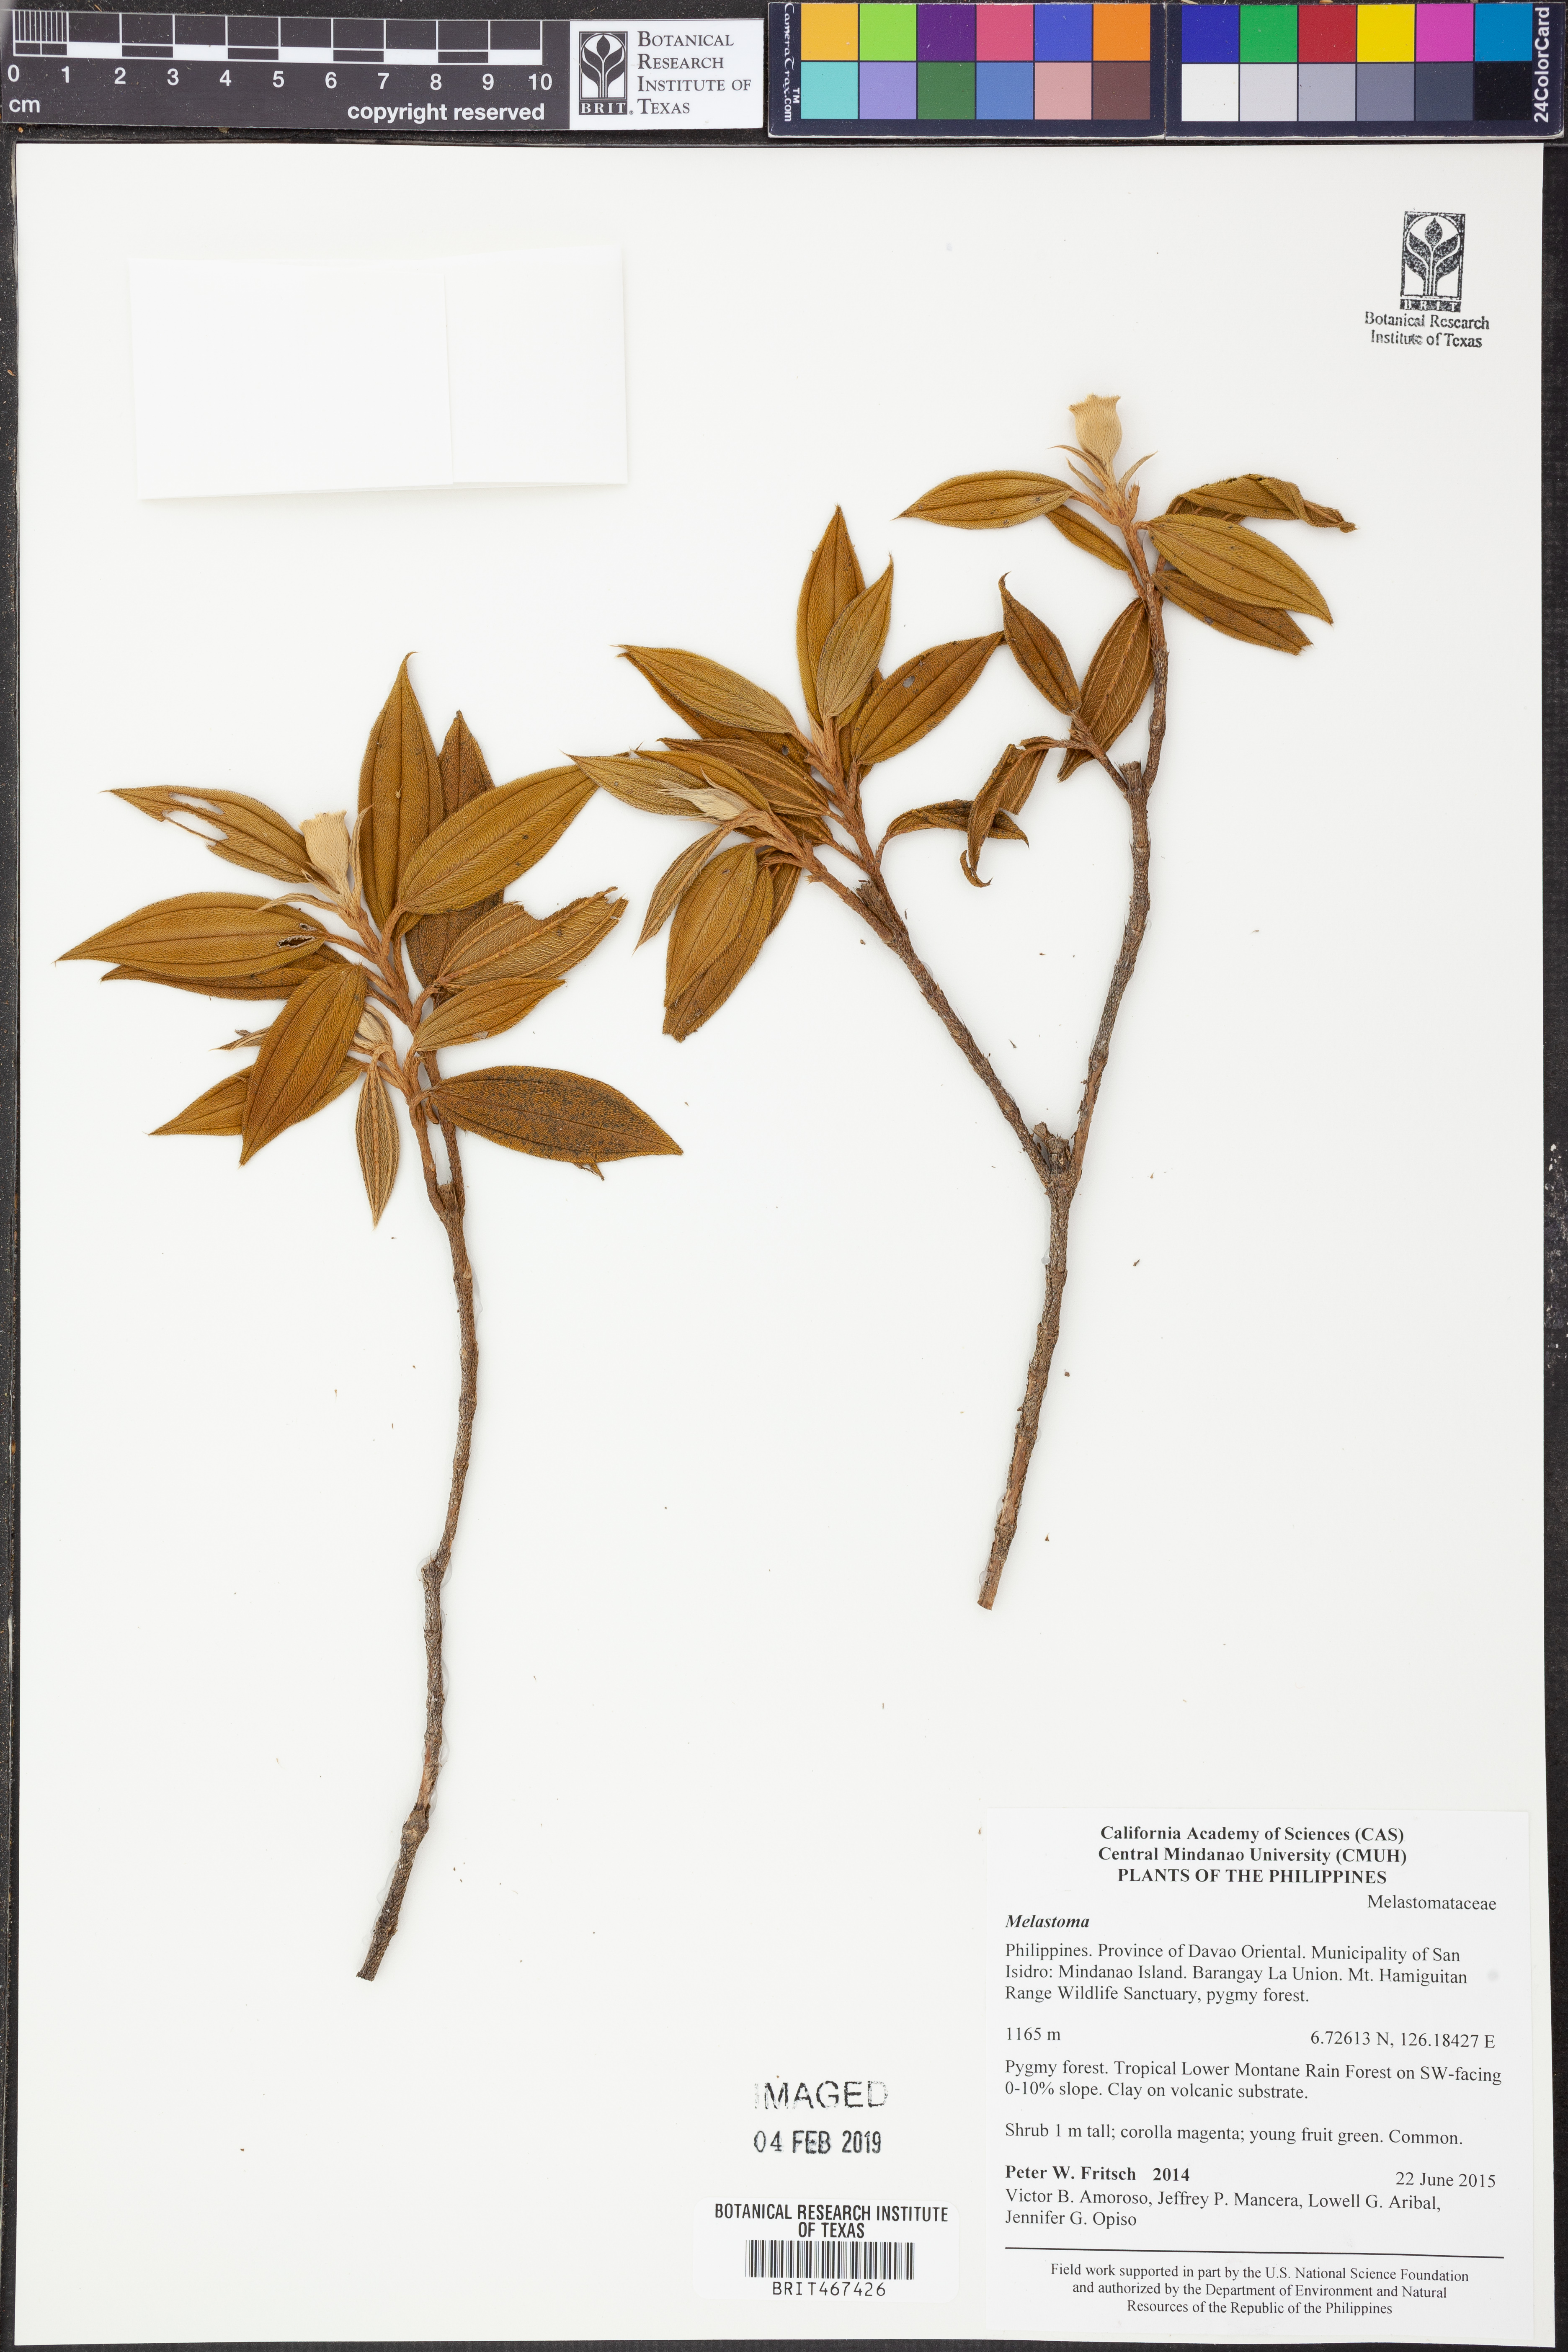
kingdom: Plantae
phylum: Tracheophyta
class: Magnoliopsida
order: Myrtales
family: Melastomataceae
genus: Melastoma
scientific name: Melastoma
